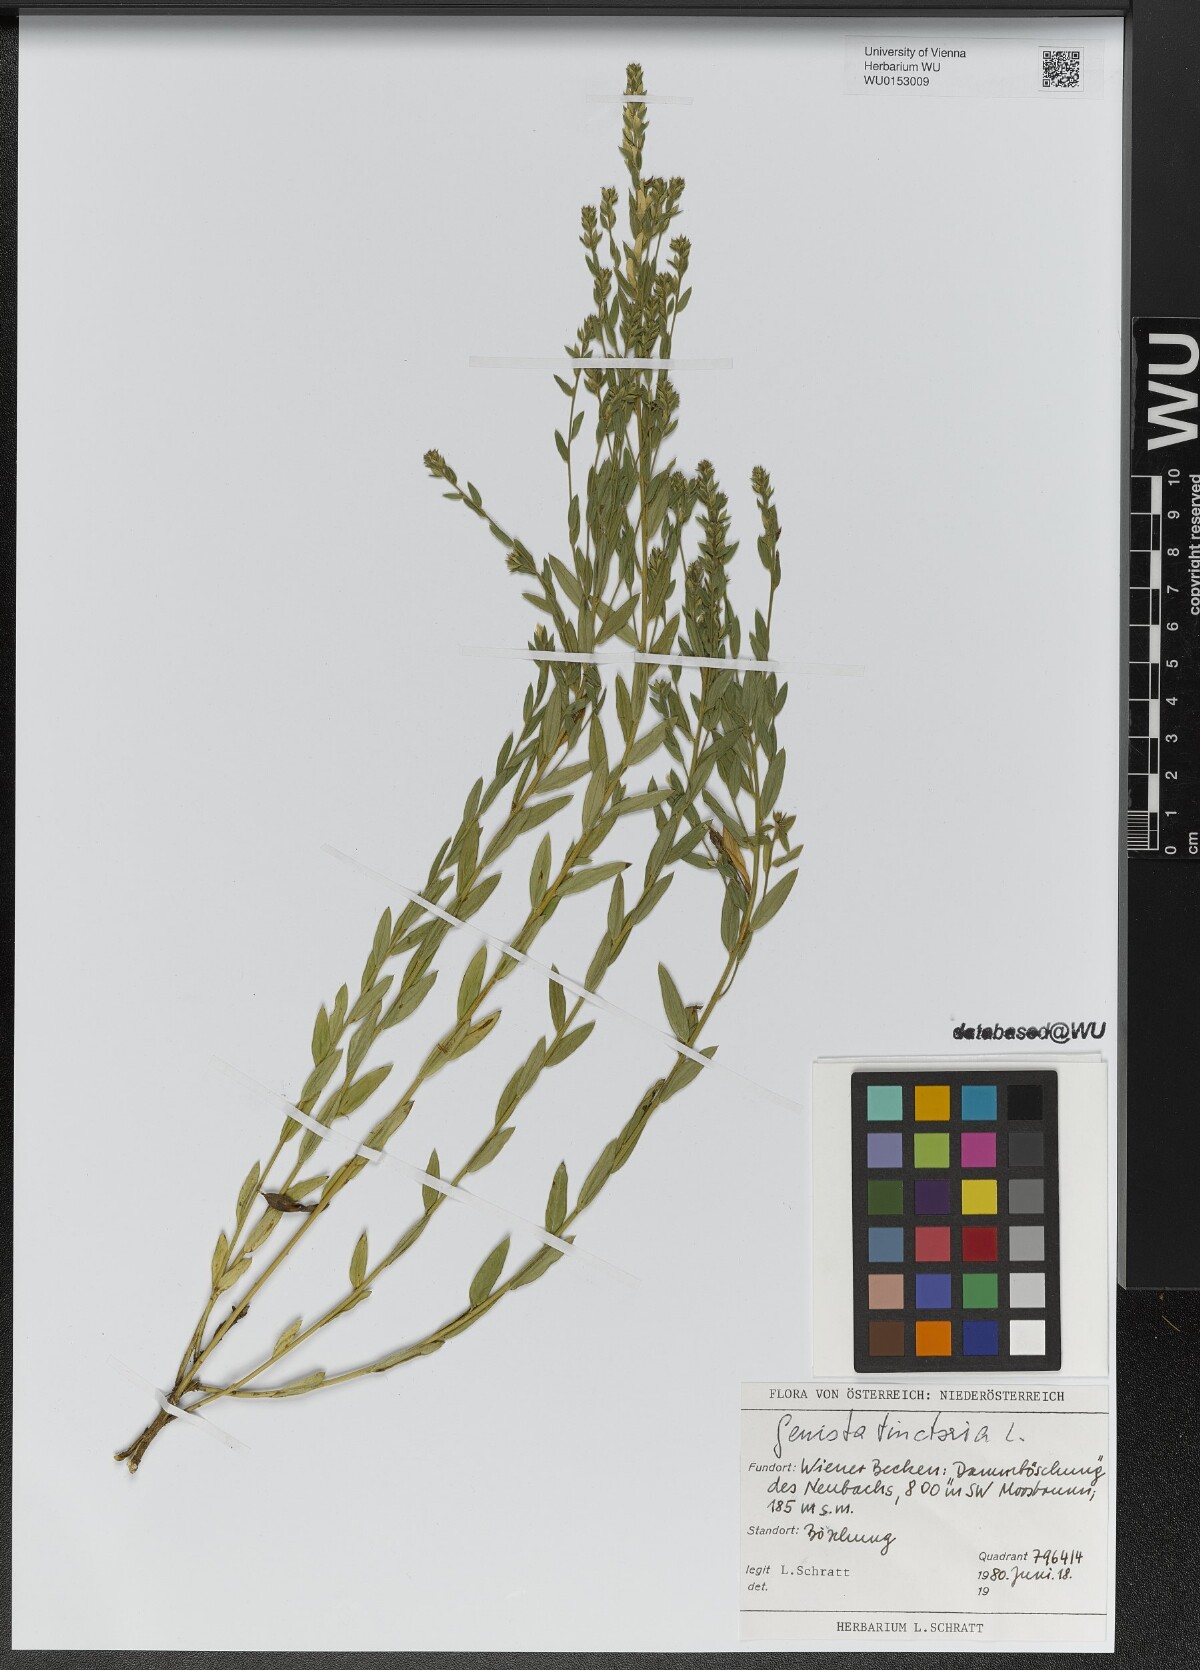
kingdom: Plantae
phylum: Tracheophyta
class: Magnoliopsida
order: Fabales
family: Fabaceae
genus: Genista
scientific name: Genista tinctoria
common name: Dyer's greenweed
